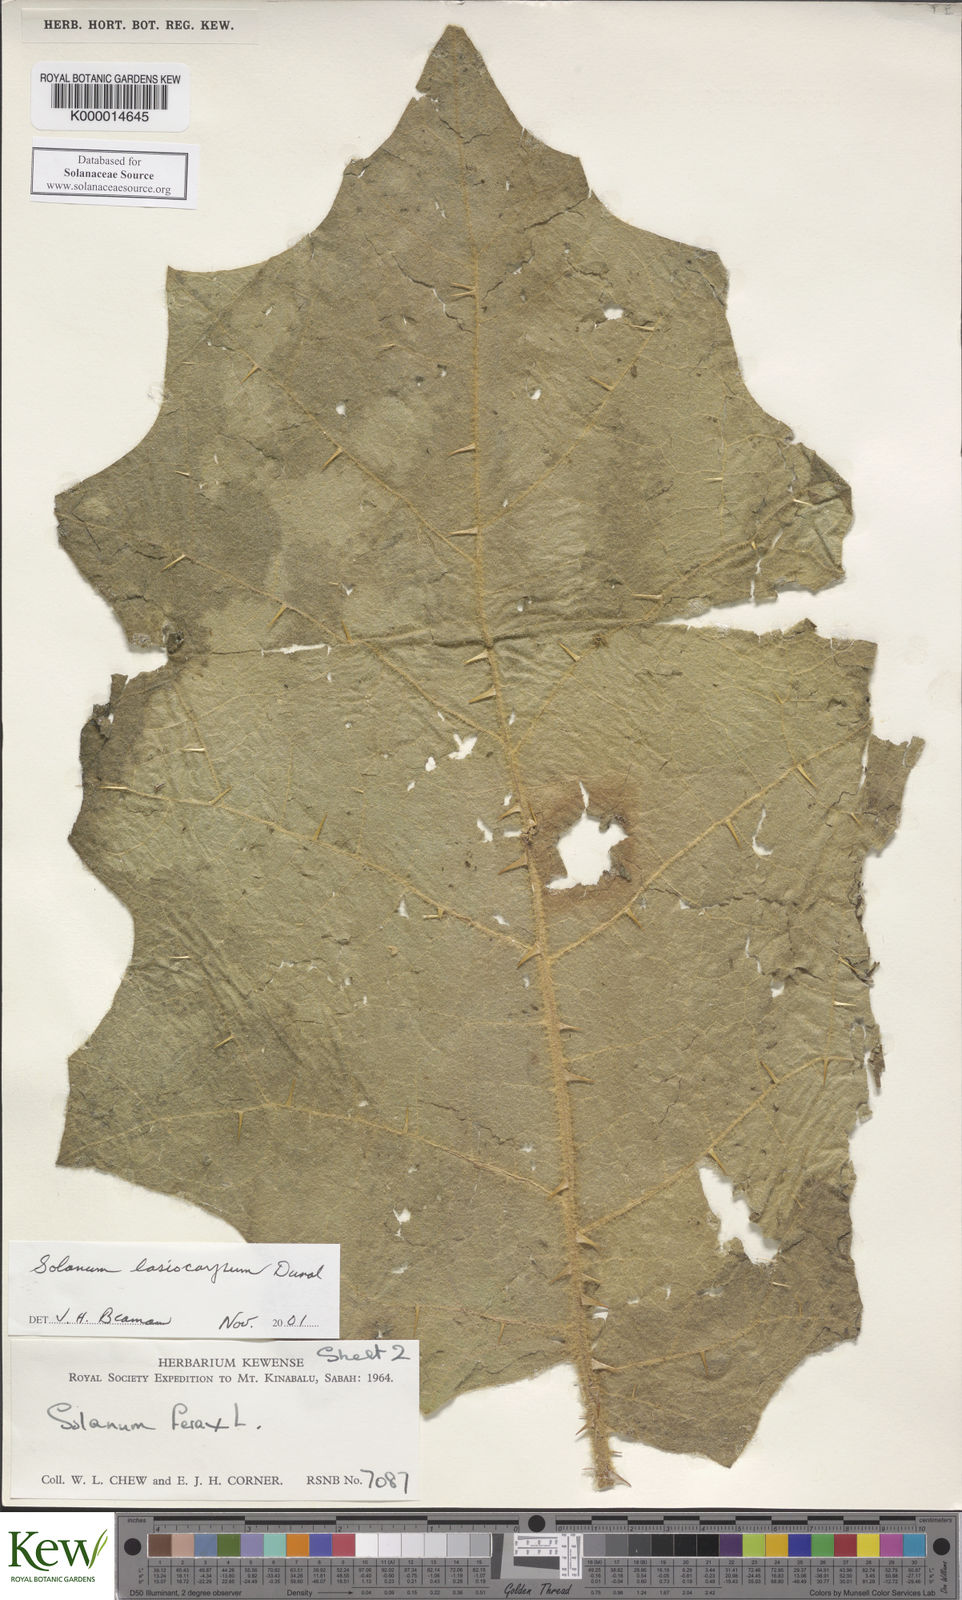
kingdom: Plantae
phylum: Tracheophyta
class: Magnoliopsida
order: Solanales
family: Solanaceae
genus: Solanum
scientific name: Solanum lasiocarpum
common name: Indian nightshade
